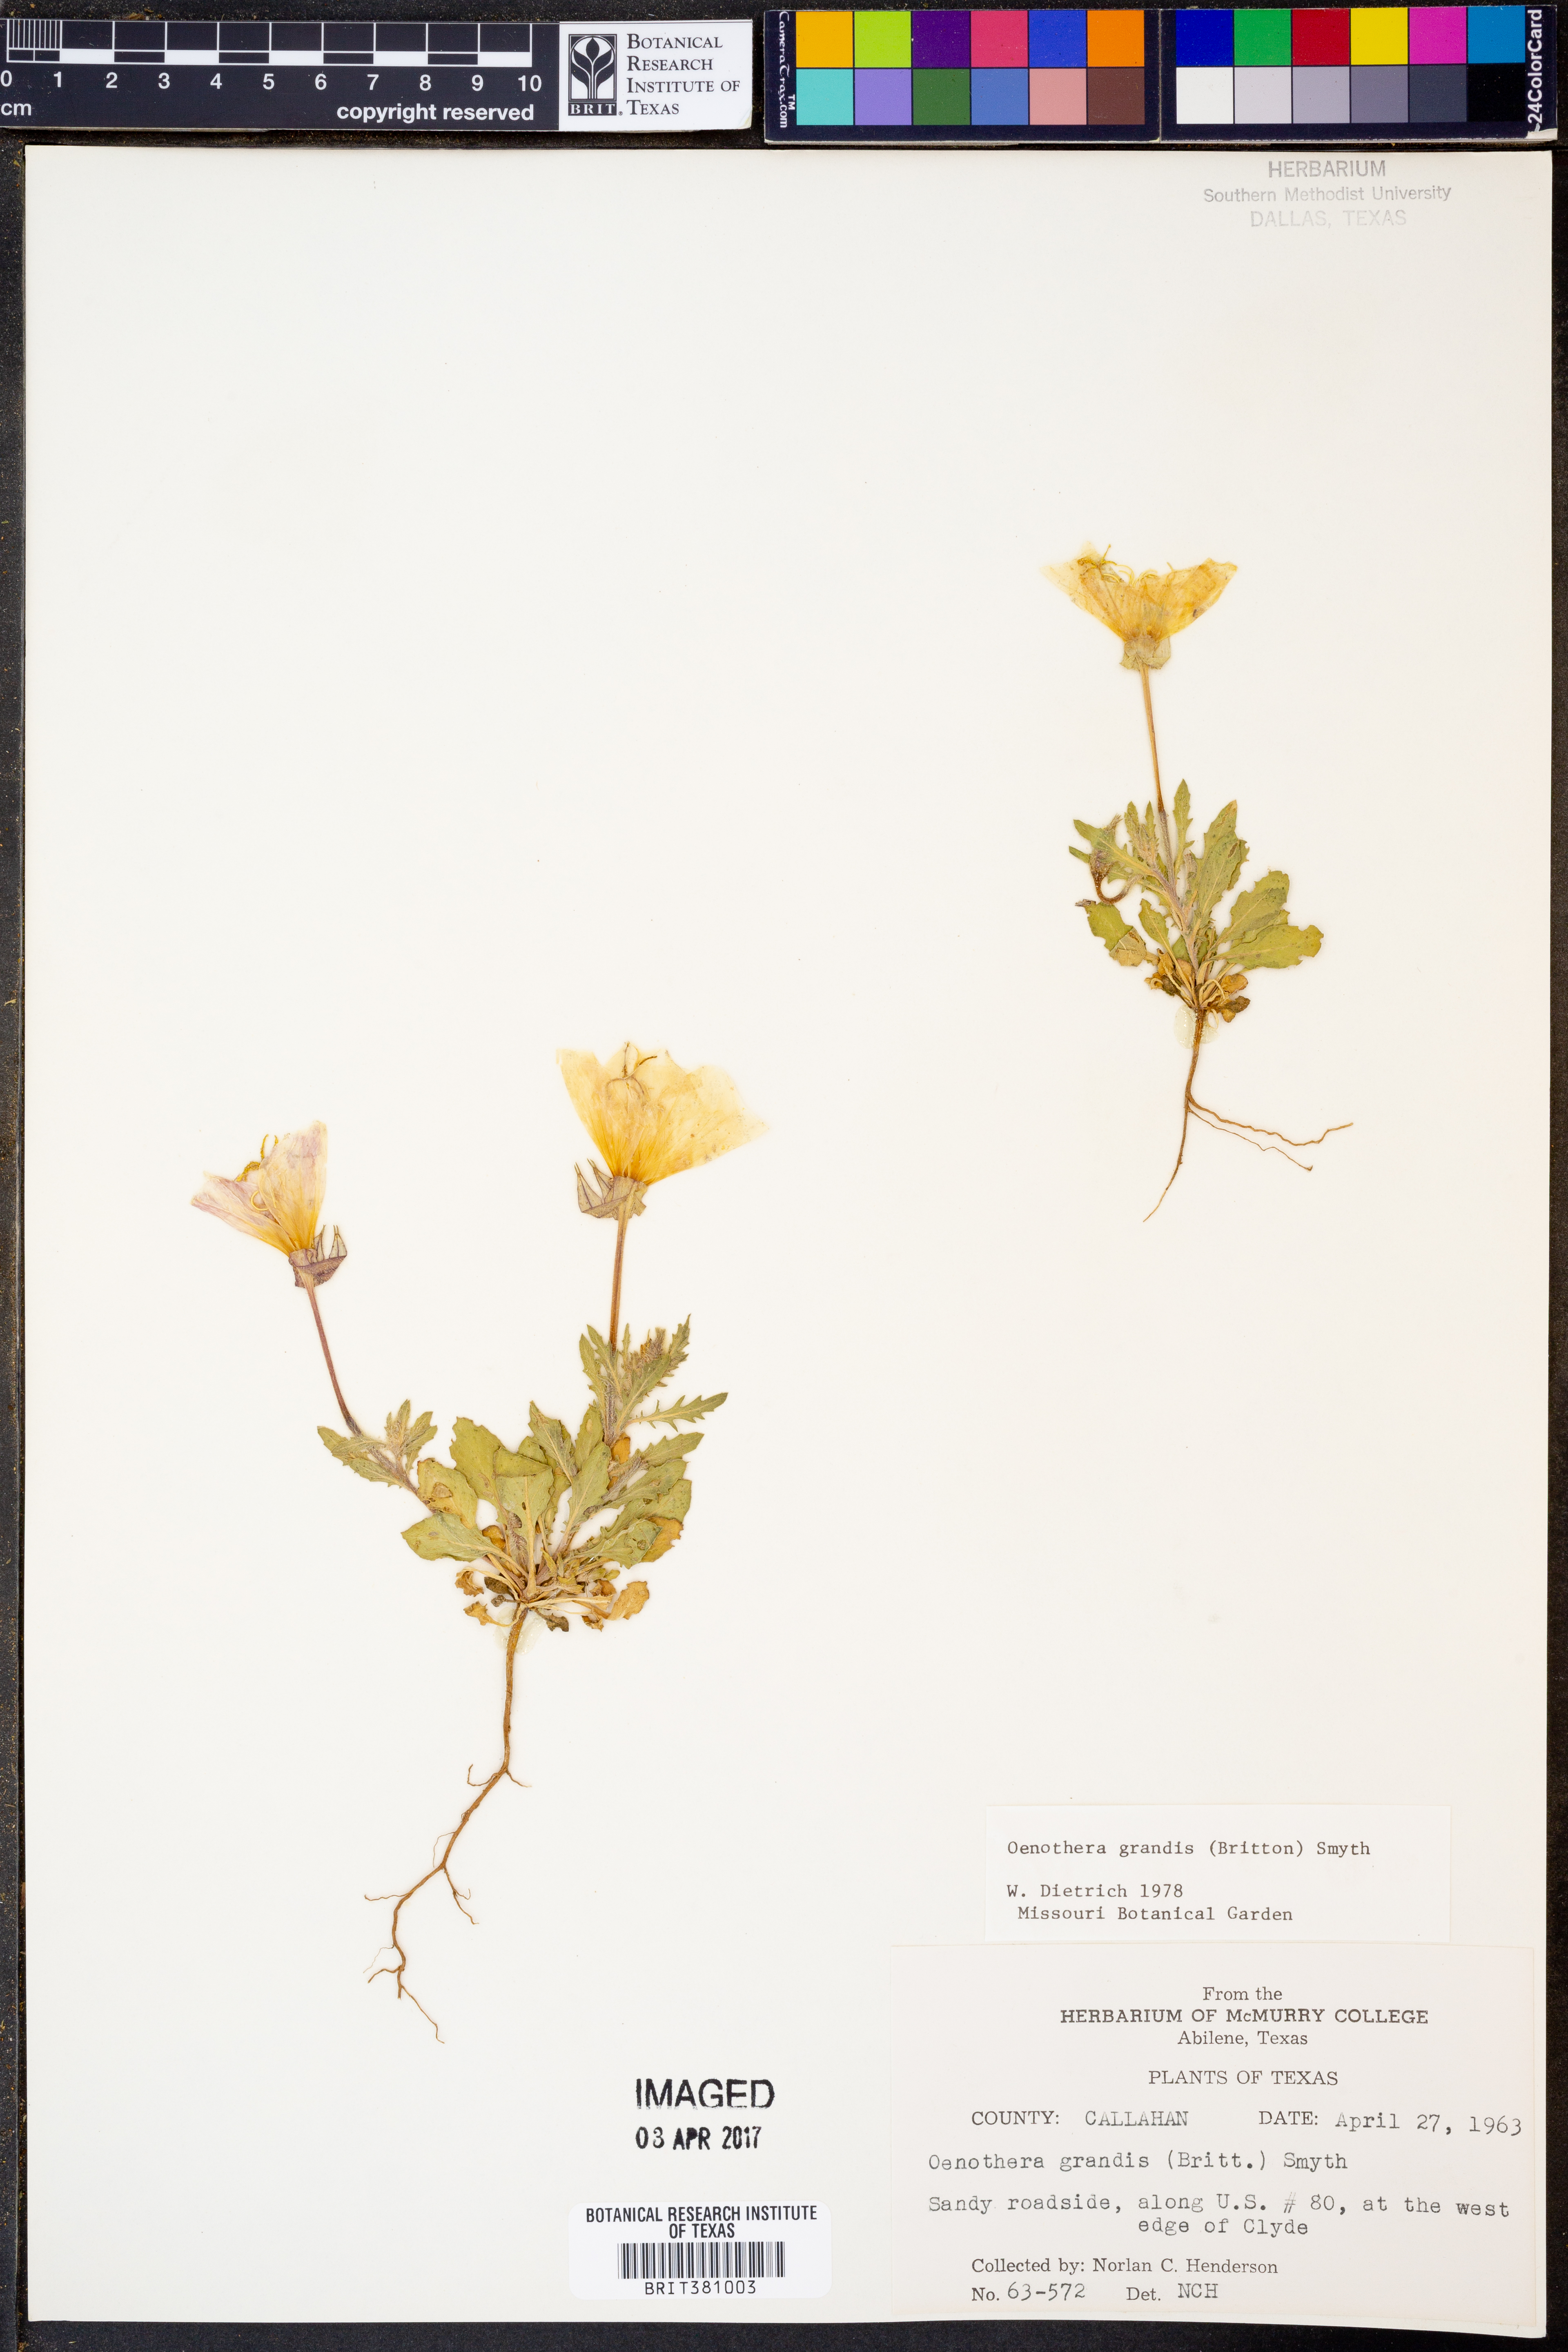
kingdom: Plantae
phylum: Tracheophyta
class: Magnoliopsida
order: Myrtales
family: Onagraceae
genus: Oenothera
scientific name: Oenothera grandis
